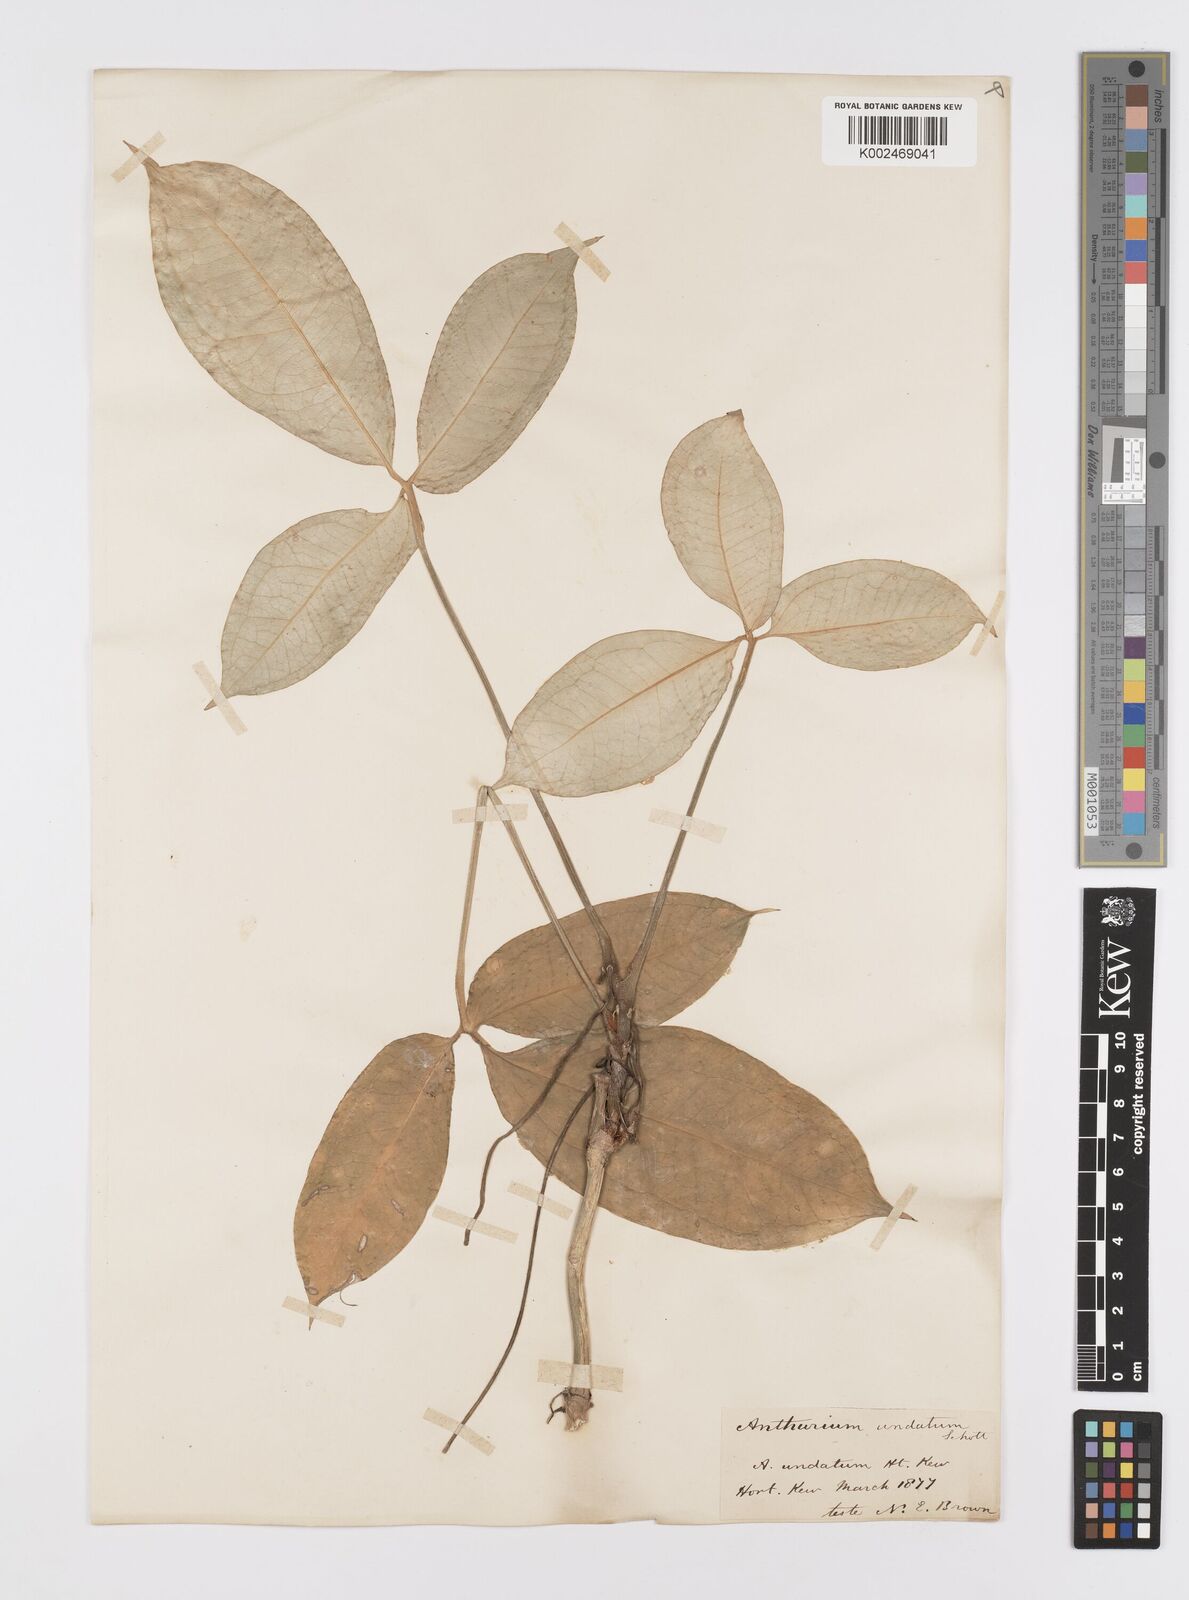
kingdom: Plantae
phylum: Tracheophyta
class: Liliopsida
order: Alismatales
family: Araceae
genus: Anthurium
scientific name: Anthurium pentaphyllum
